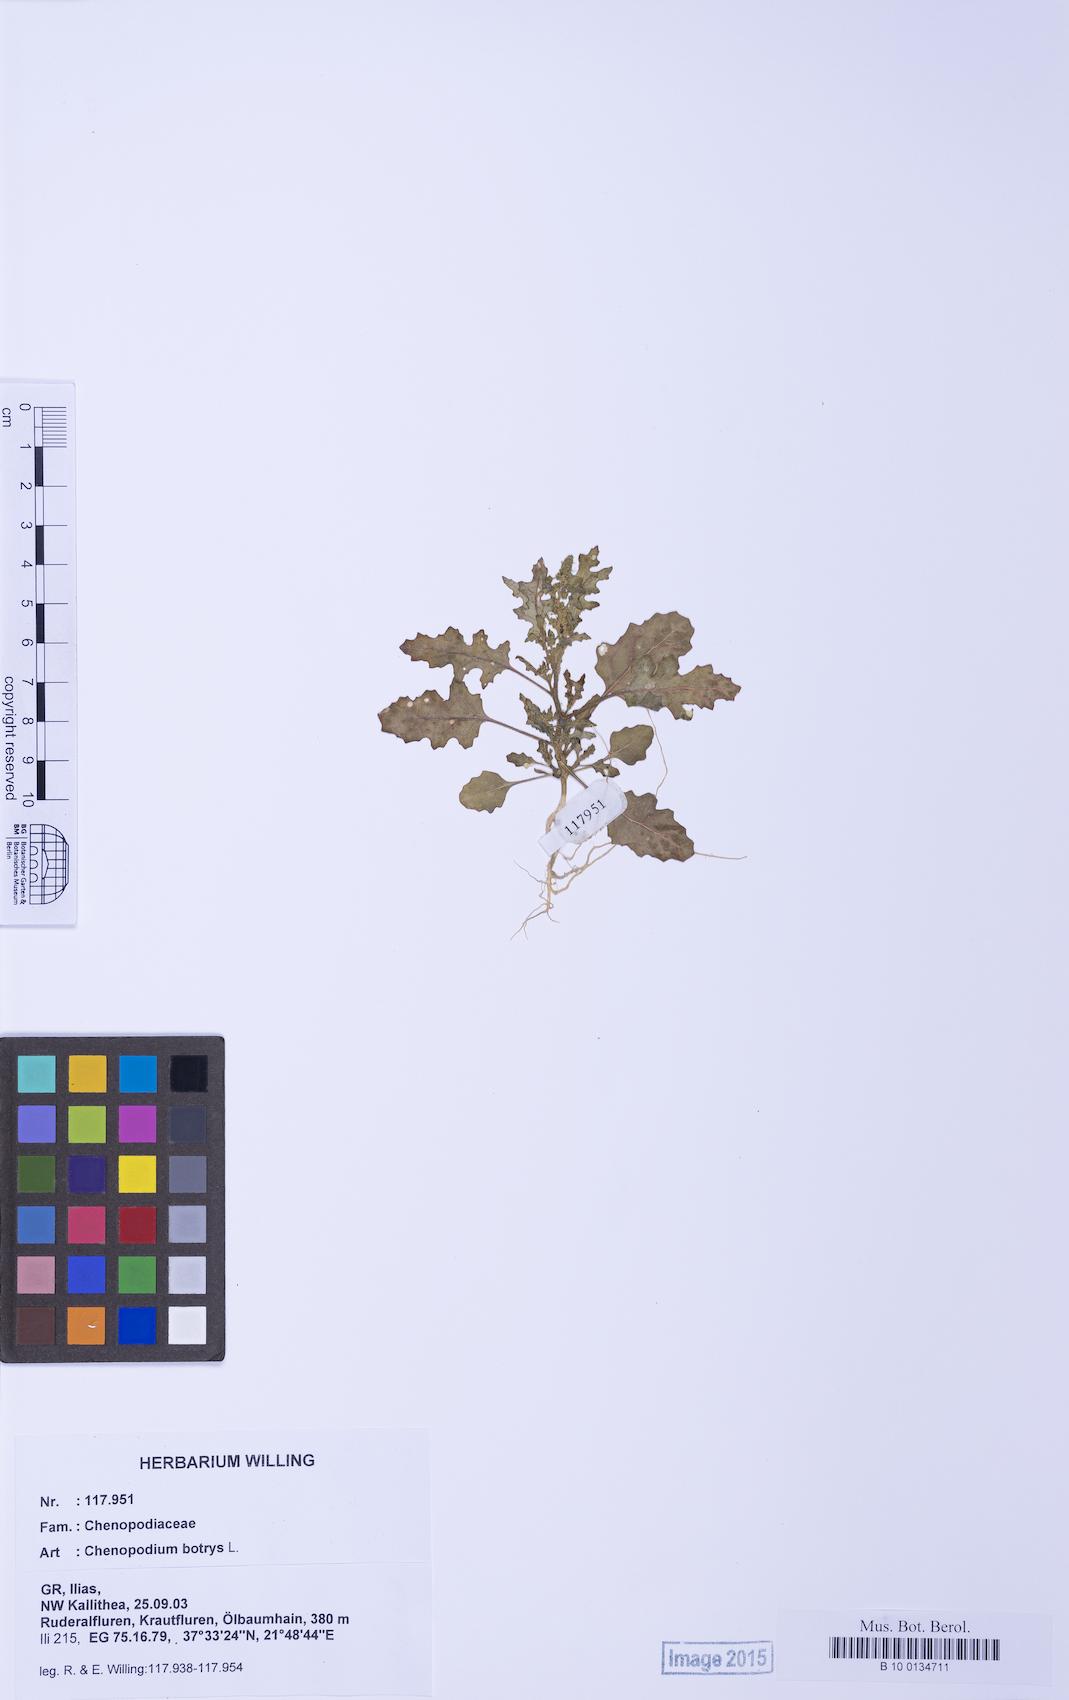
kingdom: Plantae
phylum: Tracheophyta
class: Magnoliopsida
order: Caryophyllales
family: Amaranthaceae
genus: Dysphania
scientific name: Dysphania botrys
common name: Feather-geranium
